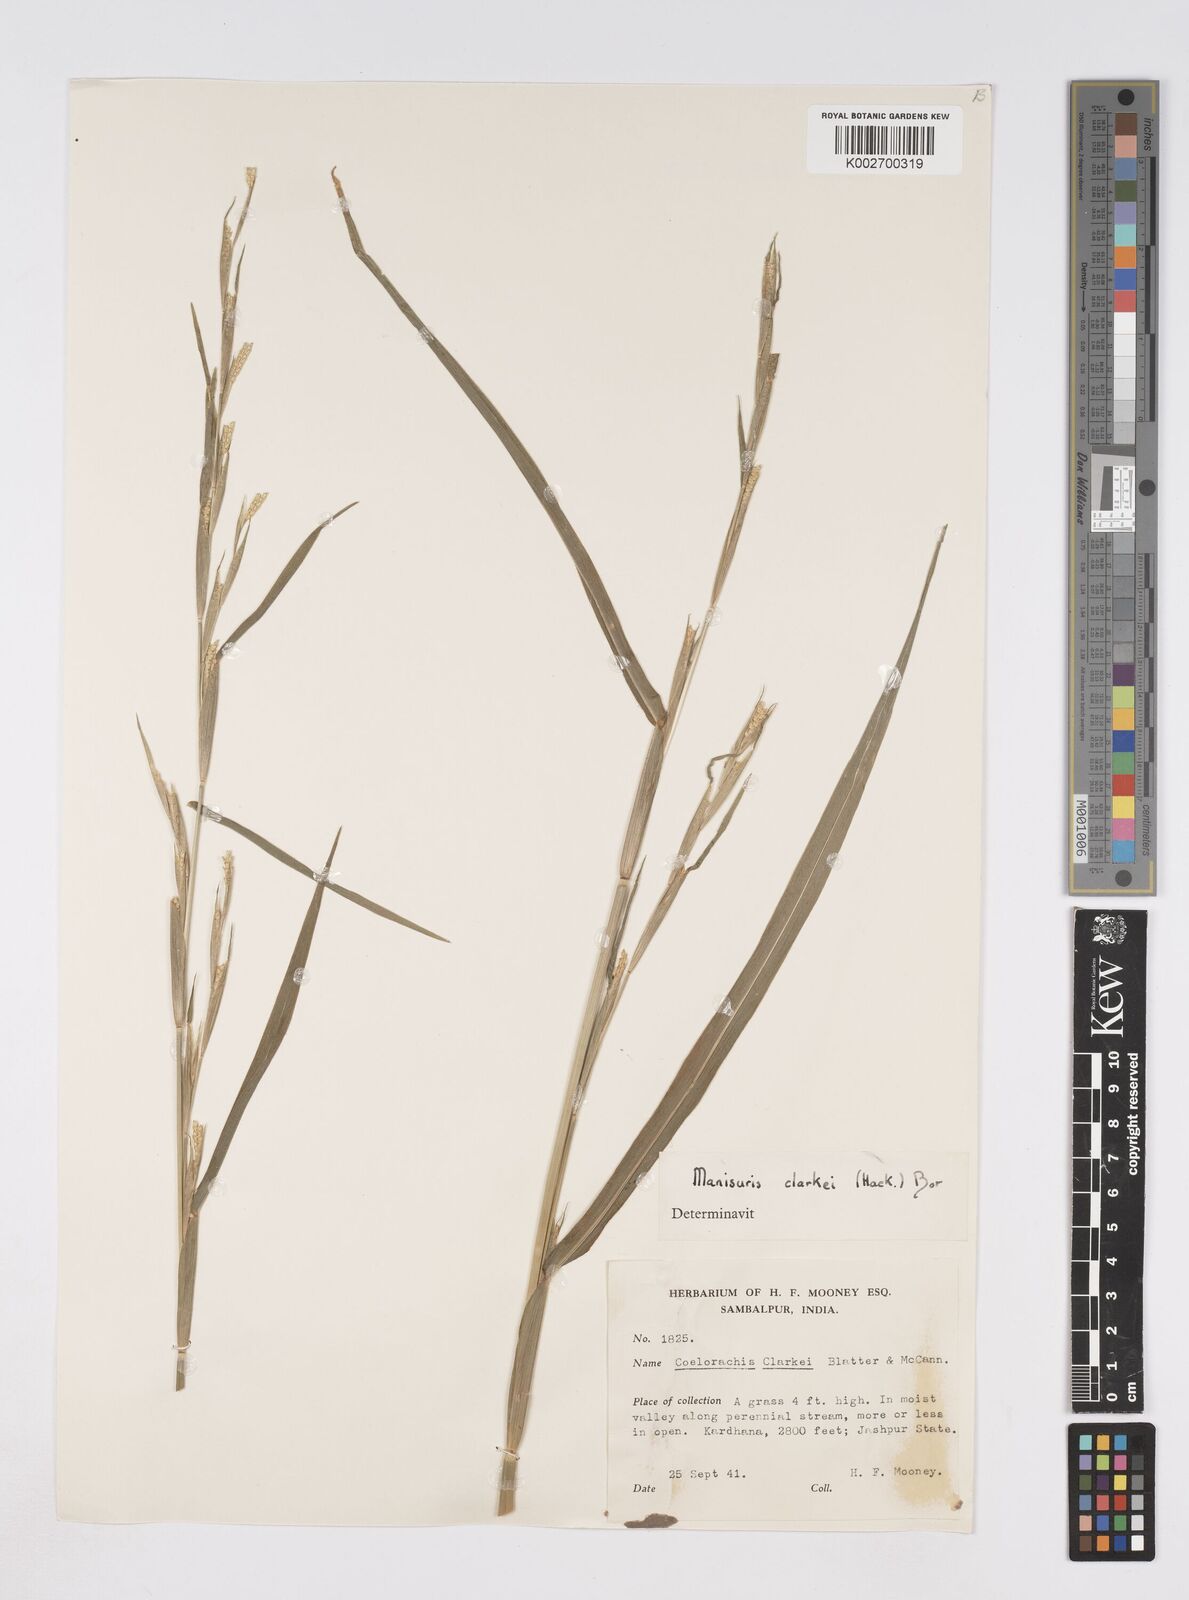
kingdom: Plantae
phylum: Tracheophyta
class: Liliopsida
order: Poales
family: Poaceae
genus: Rottboellia
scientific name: Rottboellia clarkei
